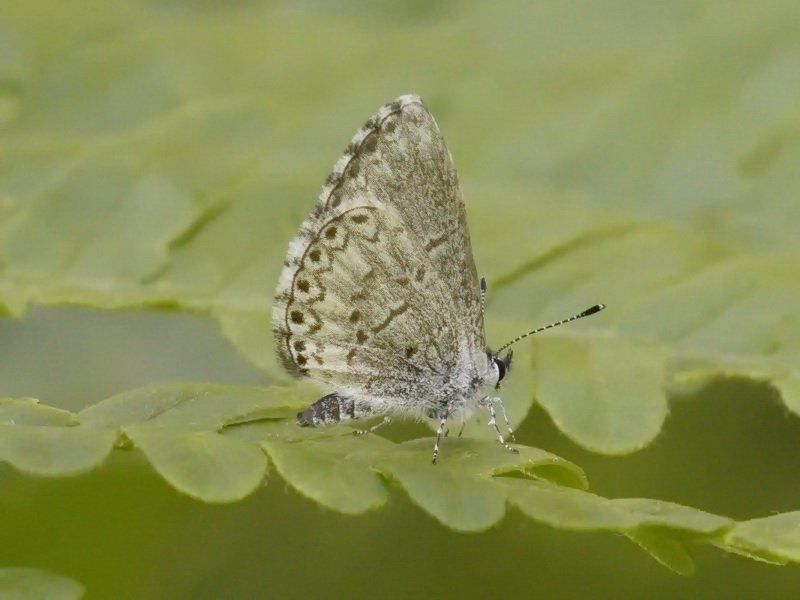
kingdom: Animalia
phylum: Arthropoda
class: Insecta
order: Lepidoptera
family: Lycaenidae
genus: Celastrina
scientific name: Celastrina lucia
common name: Northern Spring Azure
